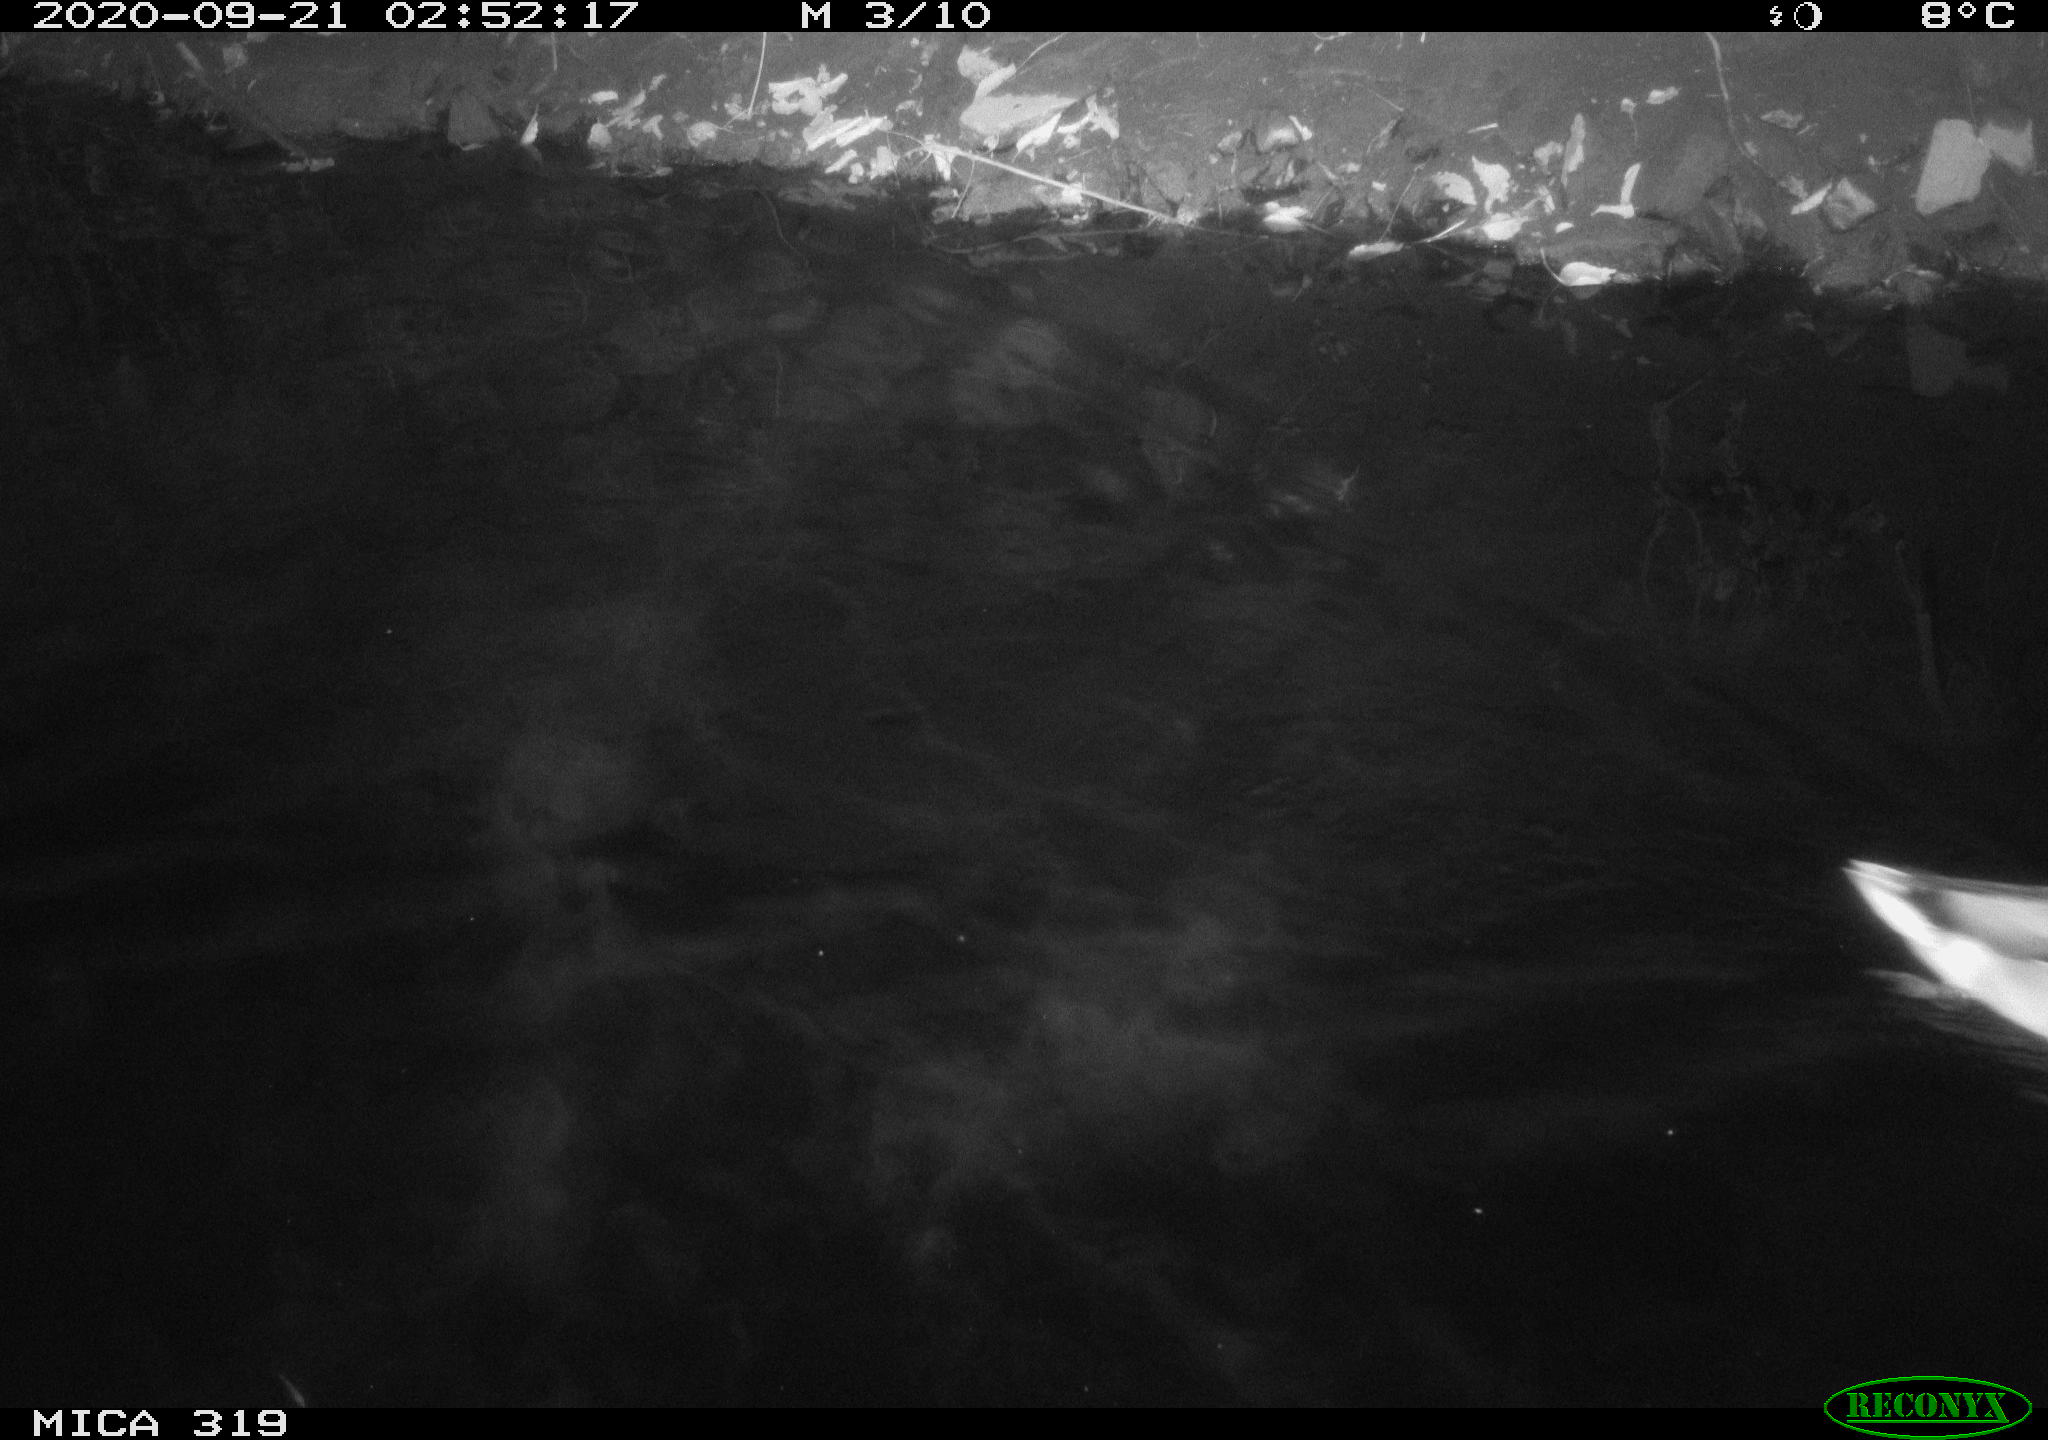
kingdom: Animalia
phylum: Chordata
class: Aves
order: Anseriformes
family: Anatidae
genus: Anas
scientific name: Anas platyrhynchos
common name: Mallard
